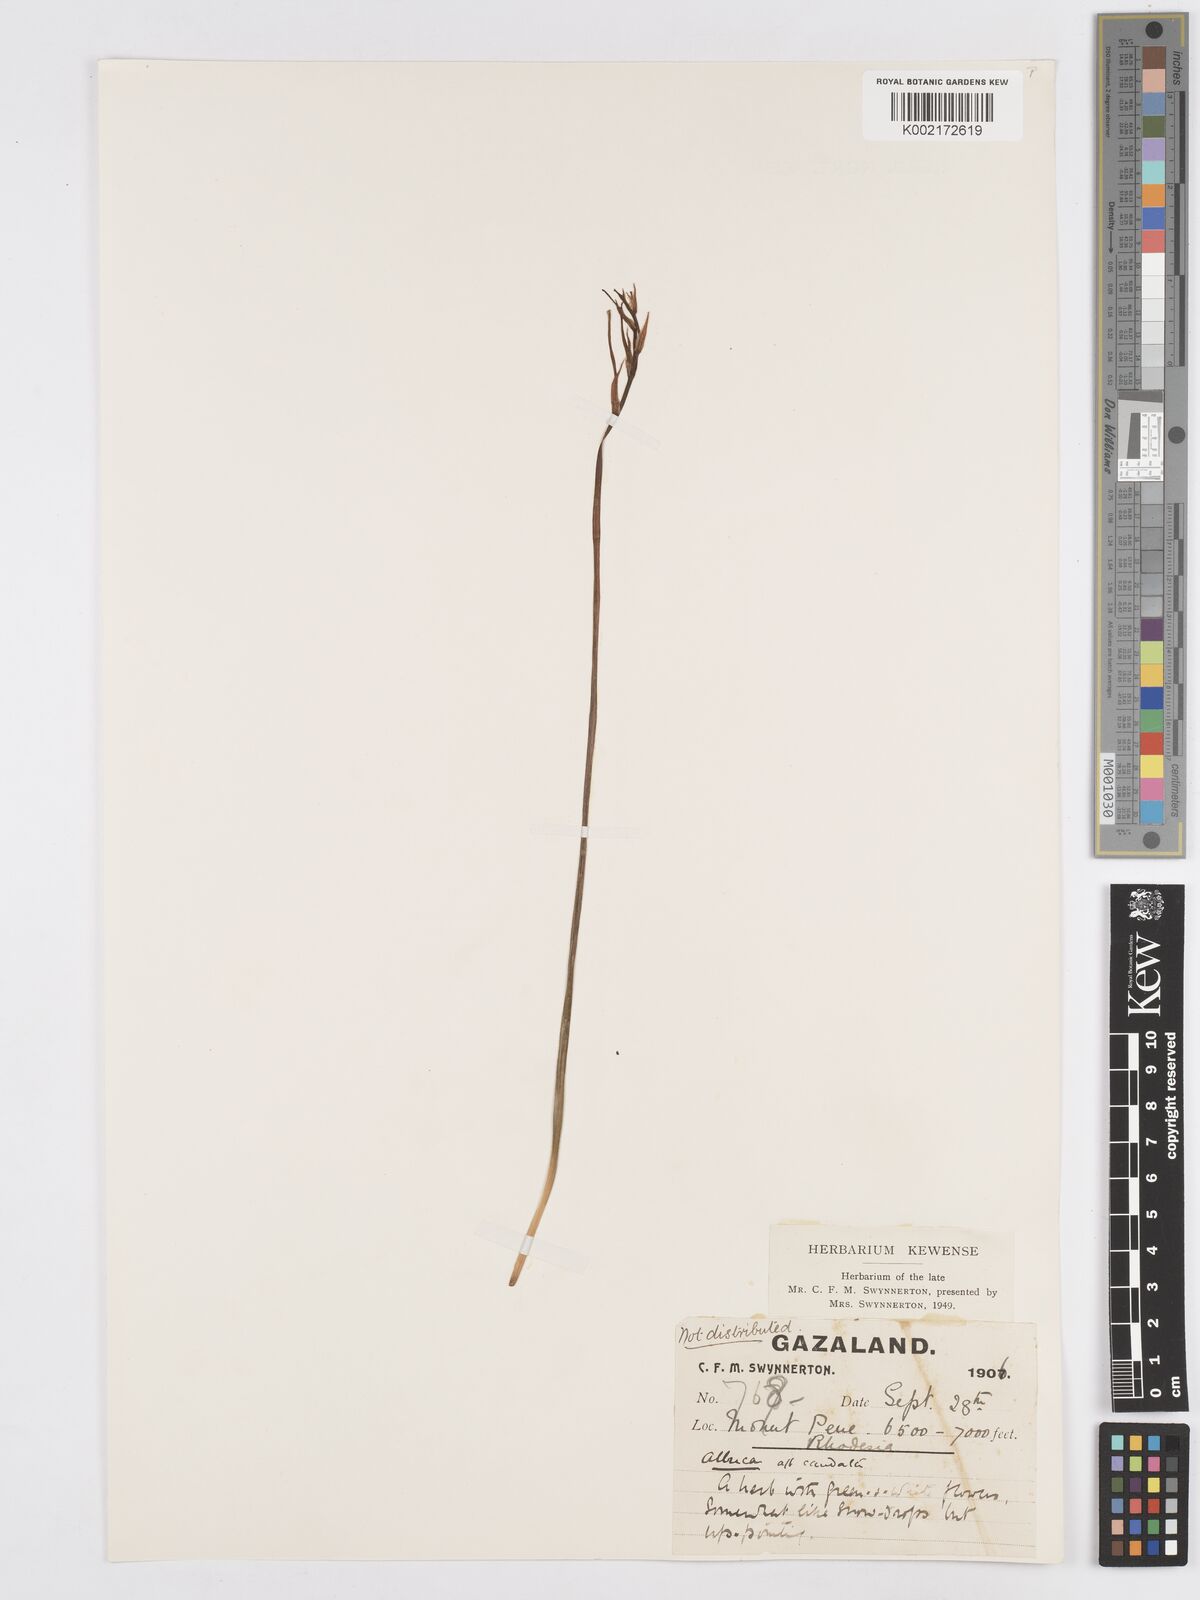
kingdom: Plantae
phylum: Tracheophyta
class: Liliopsida
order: Asparagales
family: Asparagaceae
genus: Albuca
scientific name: Albuca kirkii
